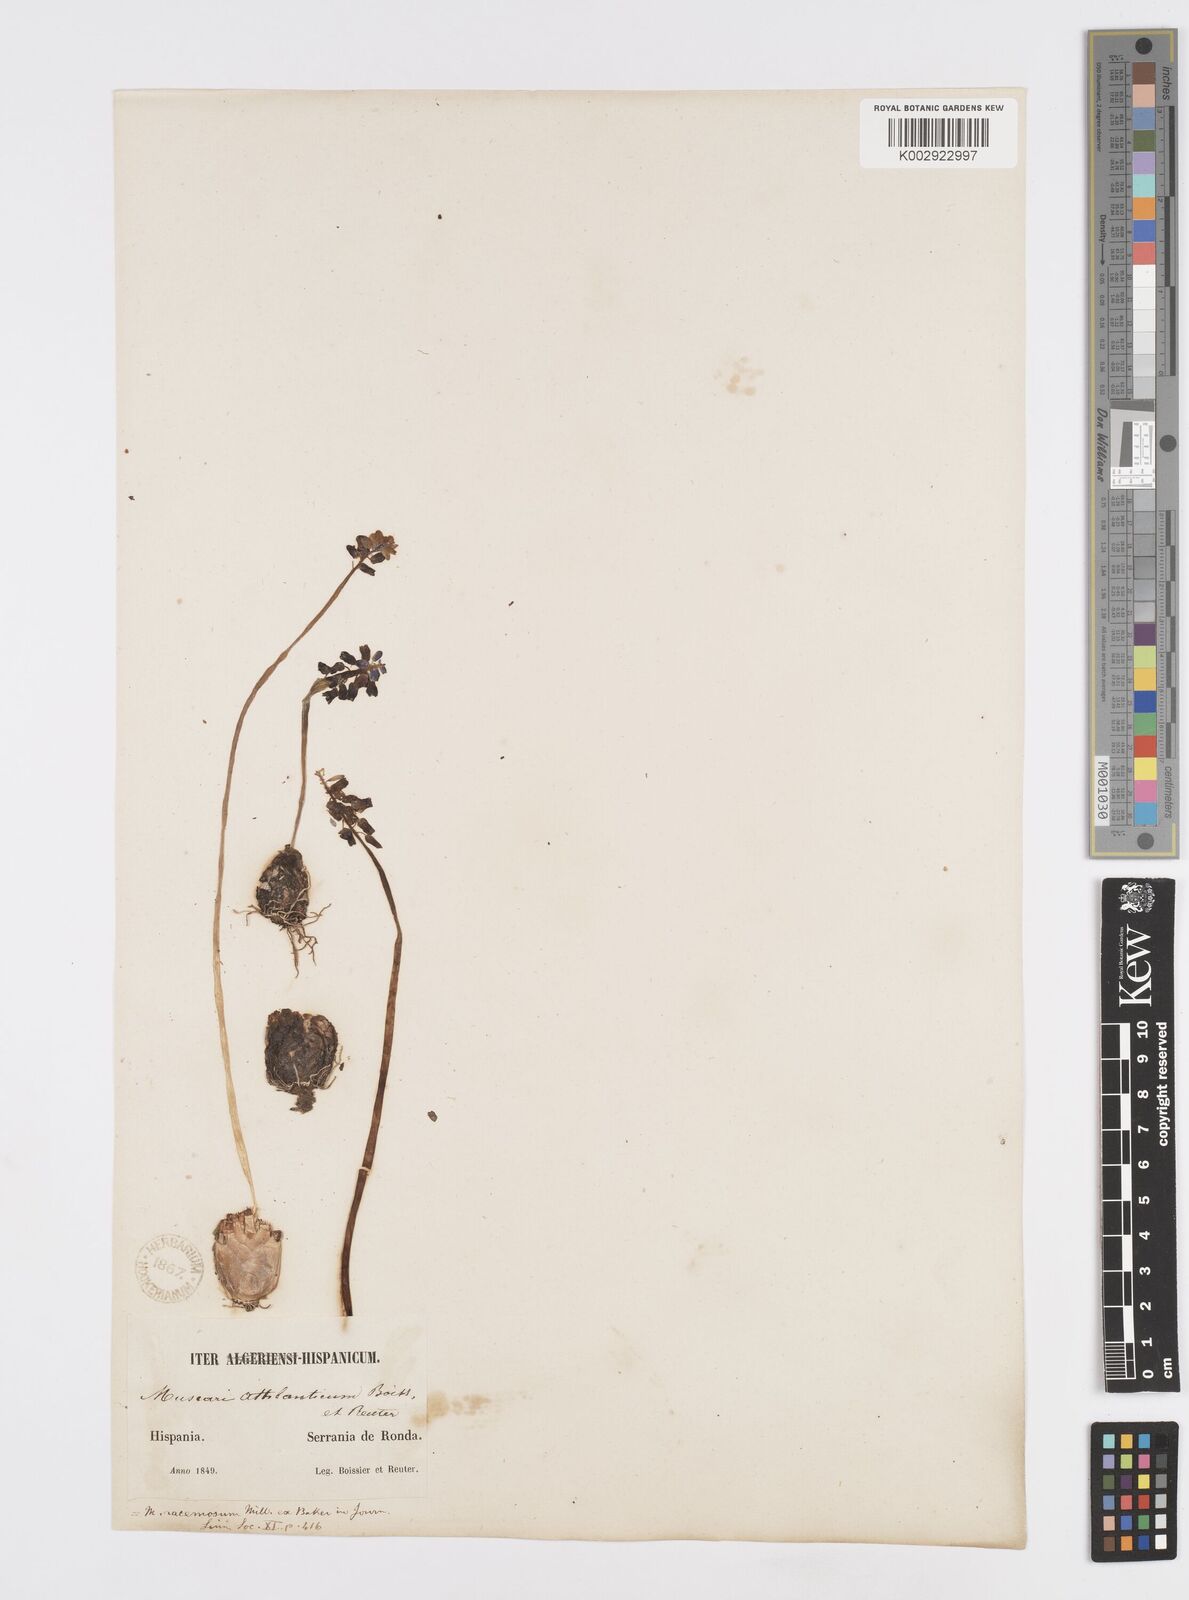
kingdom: Plantae
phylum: Tracheophyta
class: Liliopsida
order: Asparagales
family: Asparagaceae
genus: Muscarimia
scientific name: Muscarimia muscari
